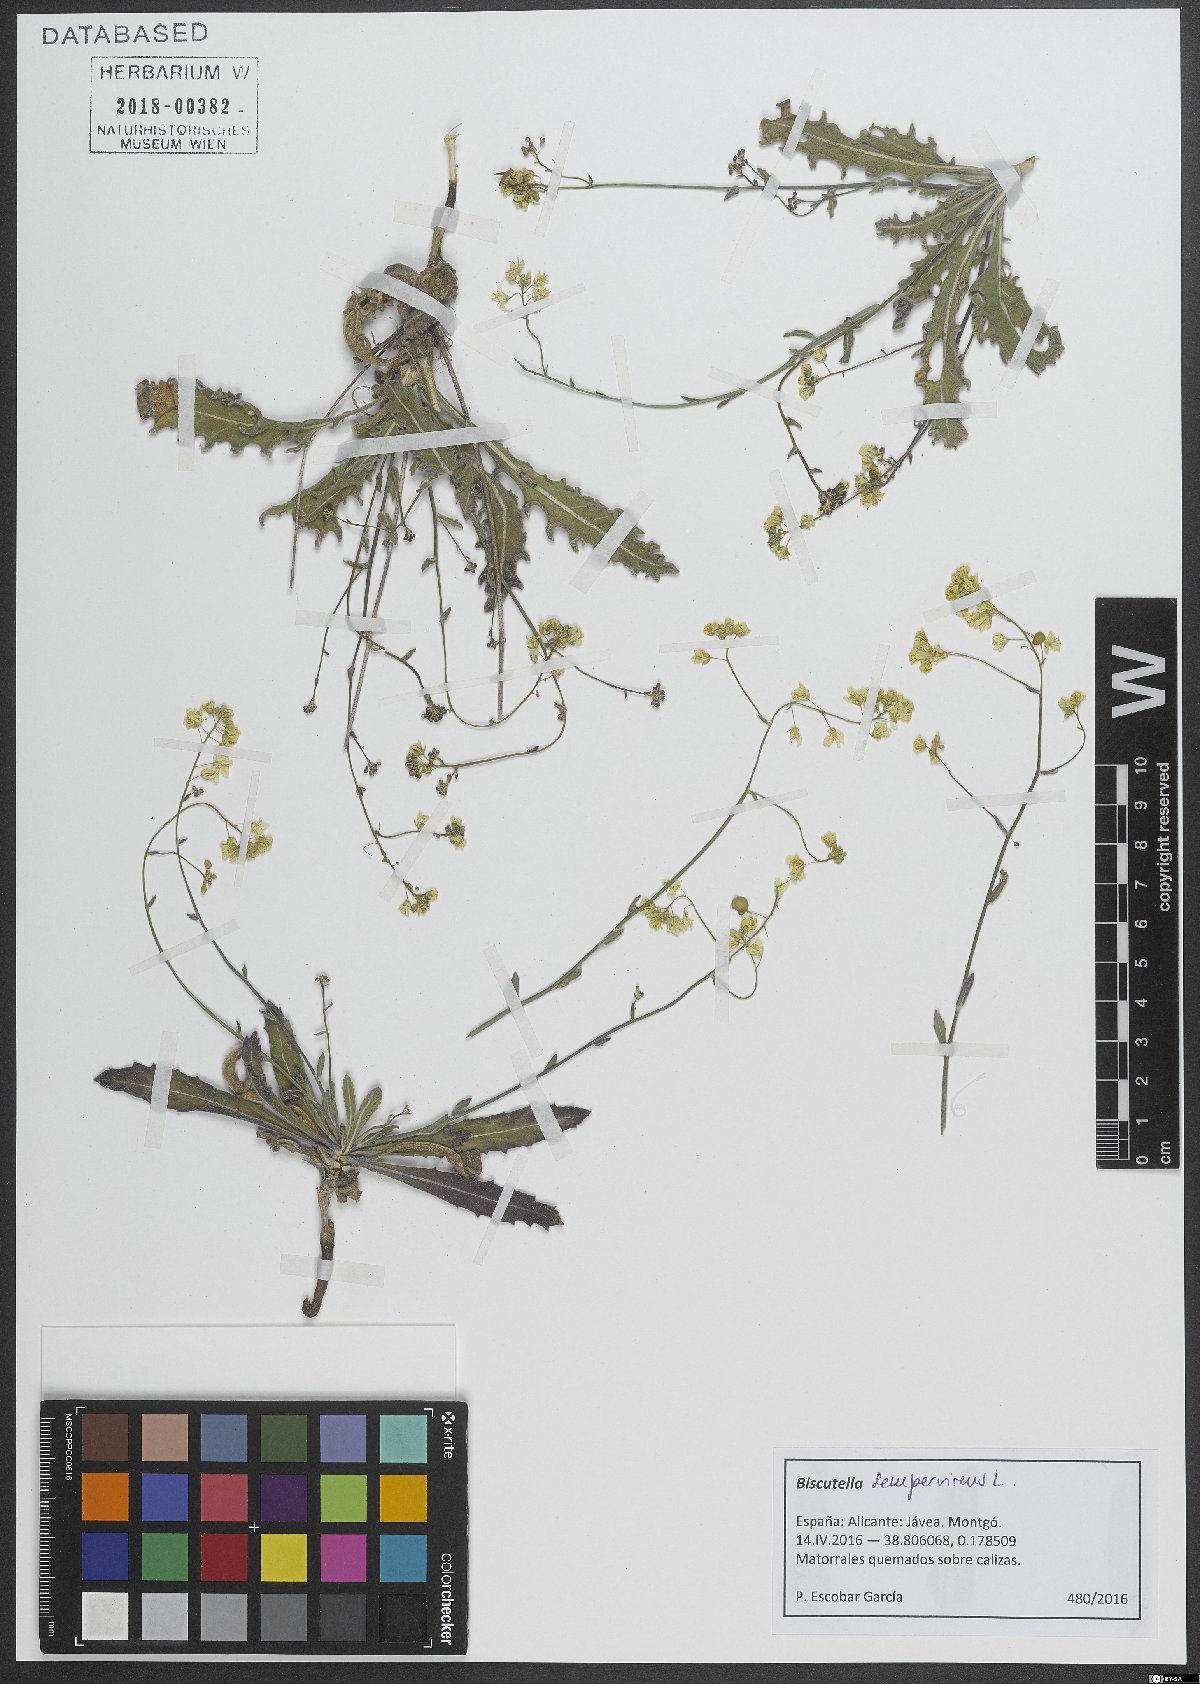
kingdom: Plantae
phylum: Tracheophyta
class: Magnoliopsida
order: Brassicales
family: Brassicaceae
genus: Biscutella
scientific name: Biscutella sempervirens
